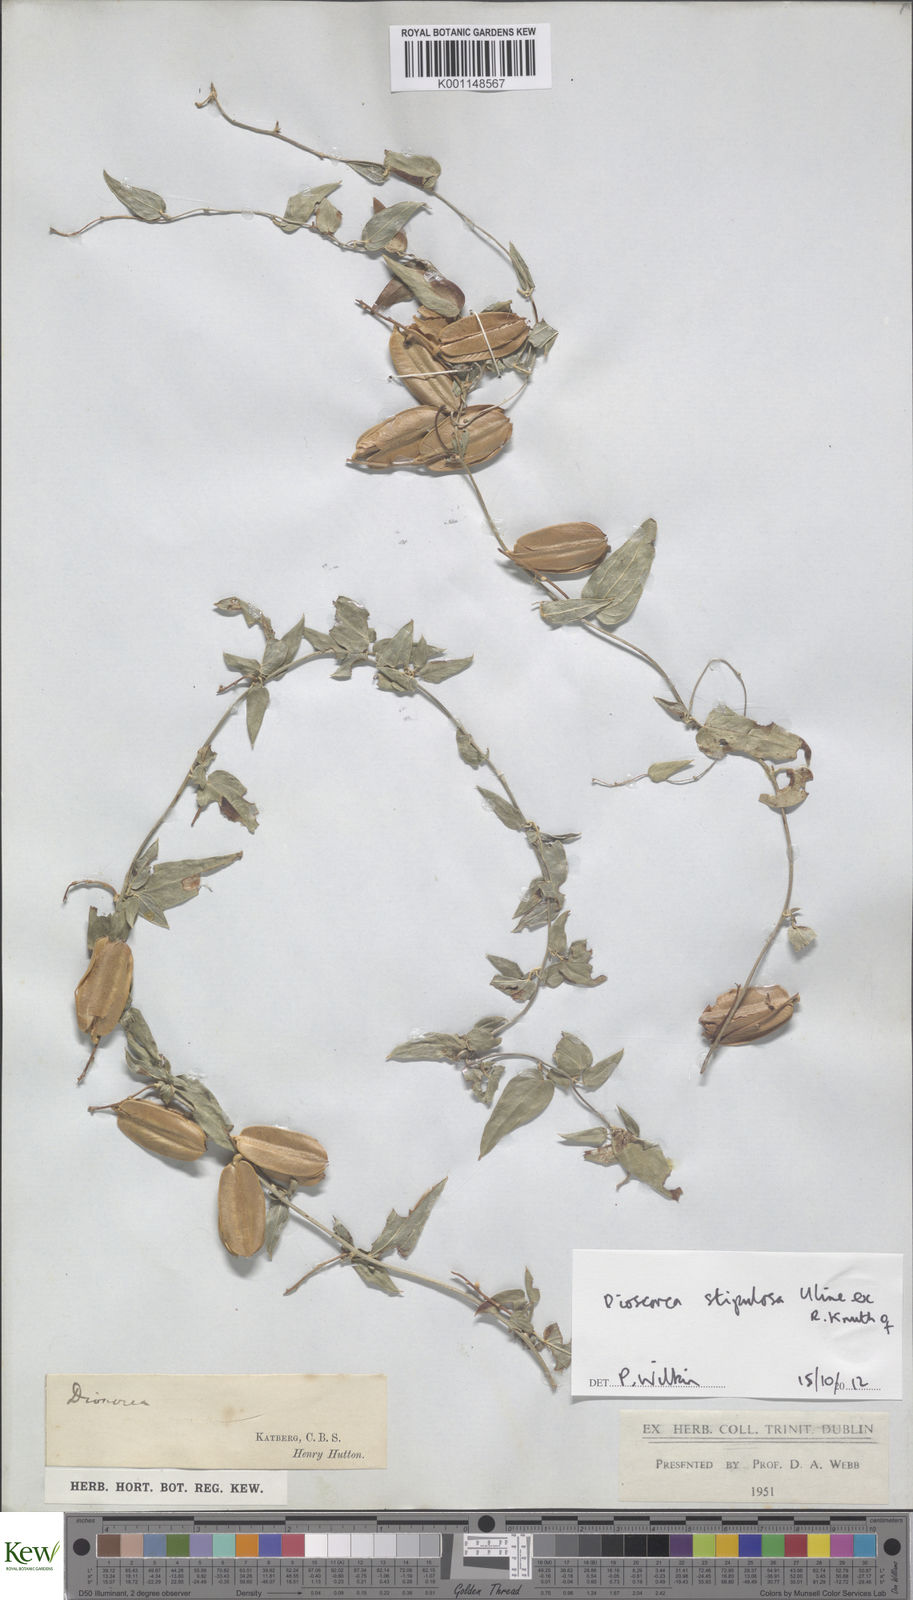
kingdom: Plantae
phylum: Tracheophyta
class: Liliopsida
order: Dioscoreales
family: Dioscoreaceae
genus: Dioscorea
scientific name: Dioscorea stipulosa
